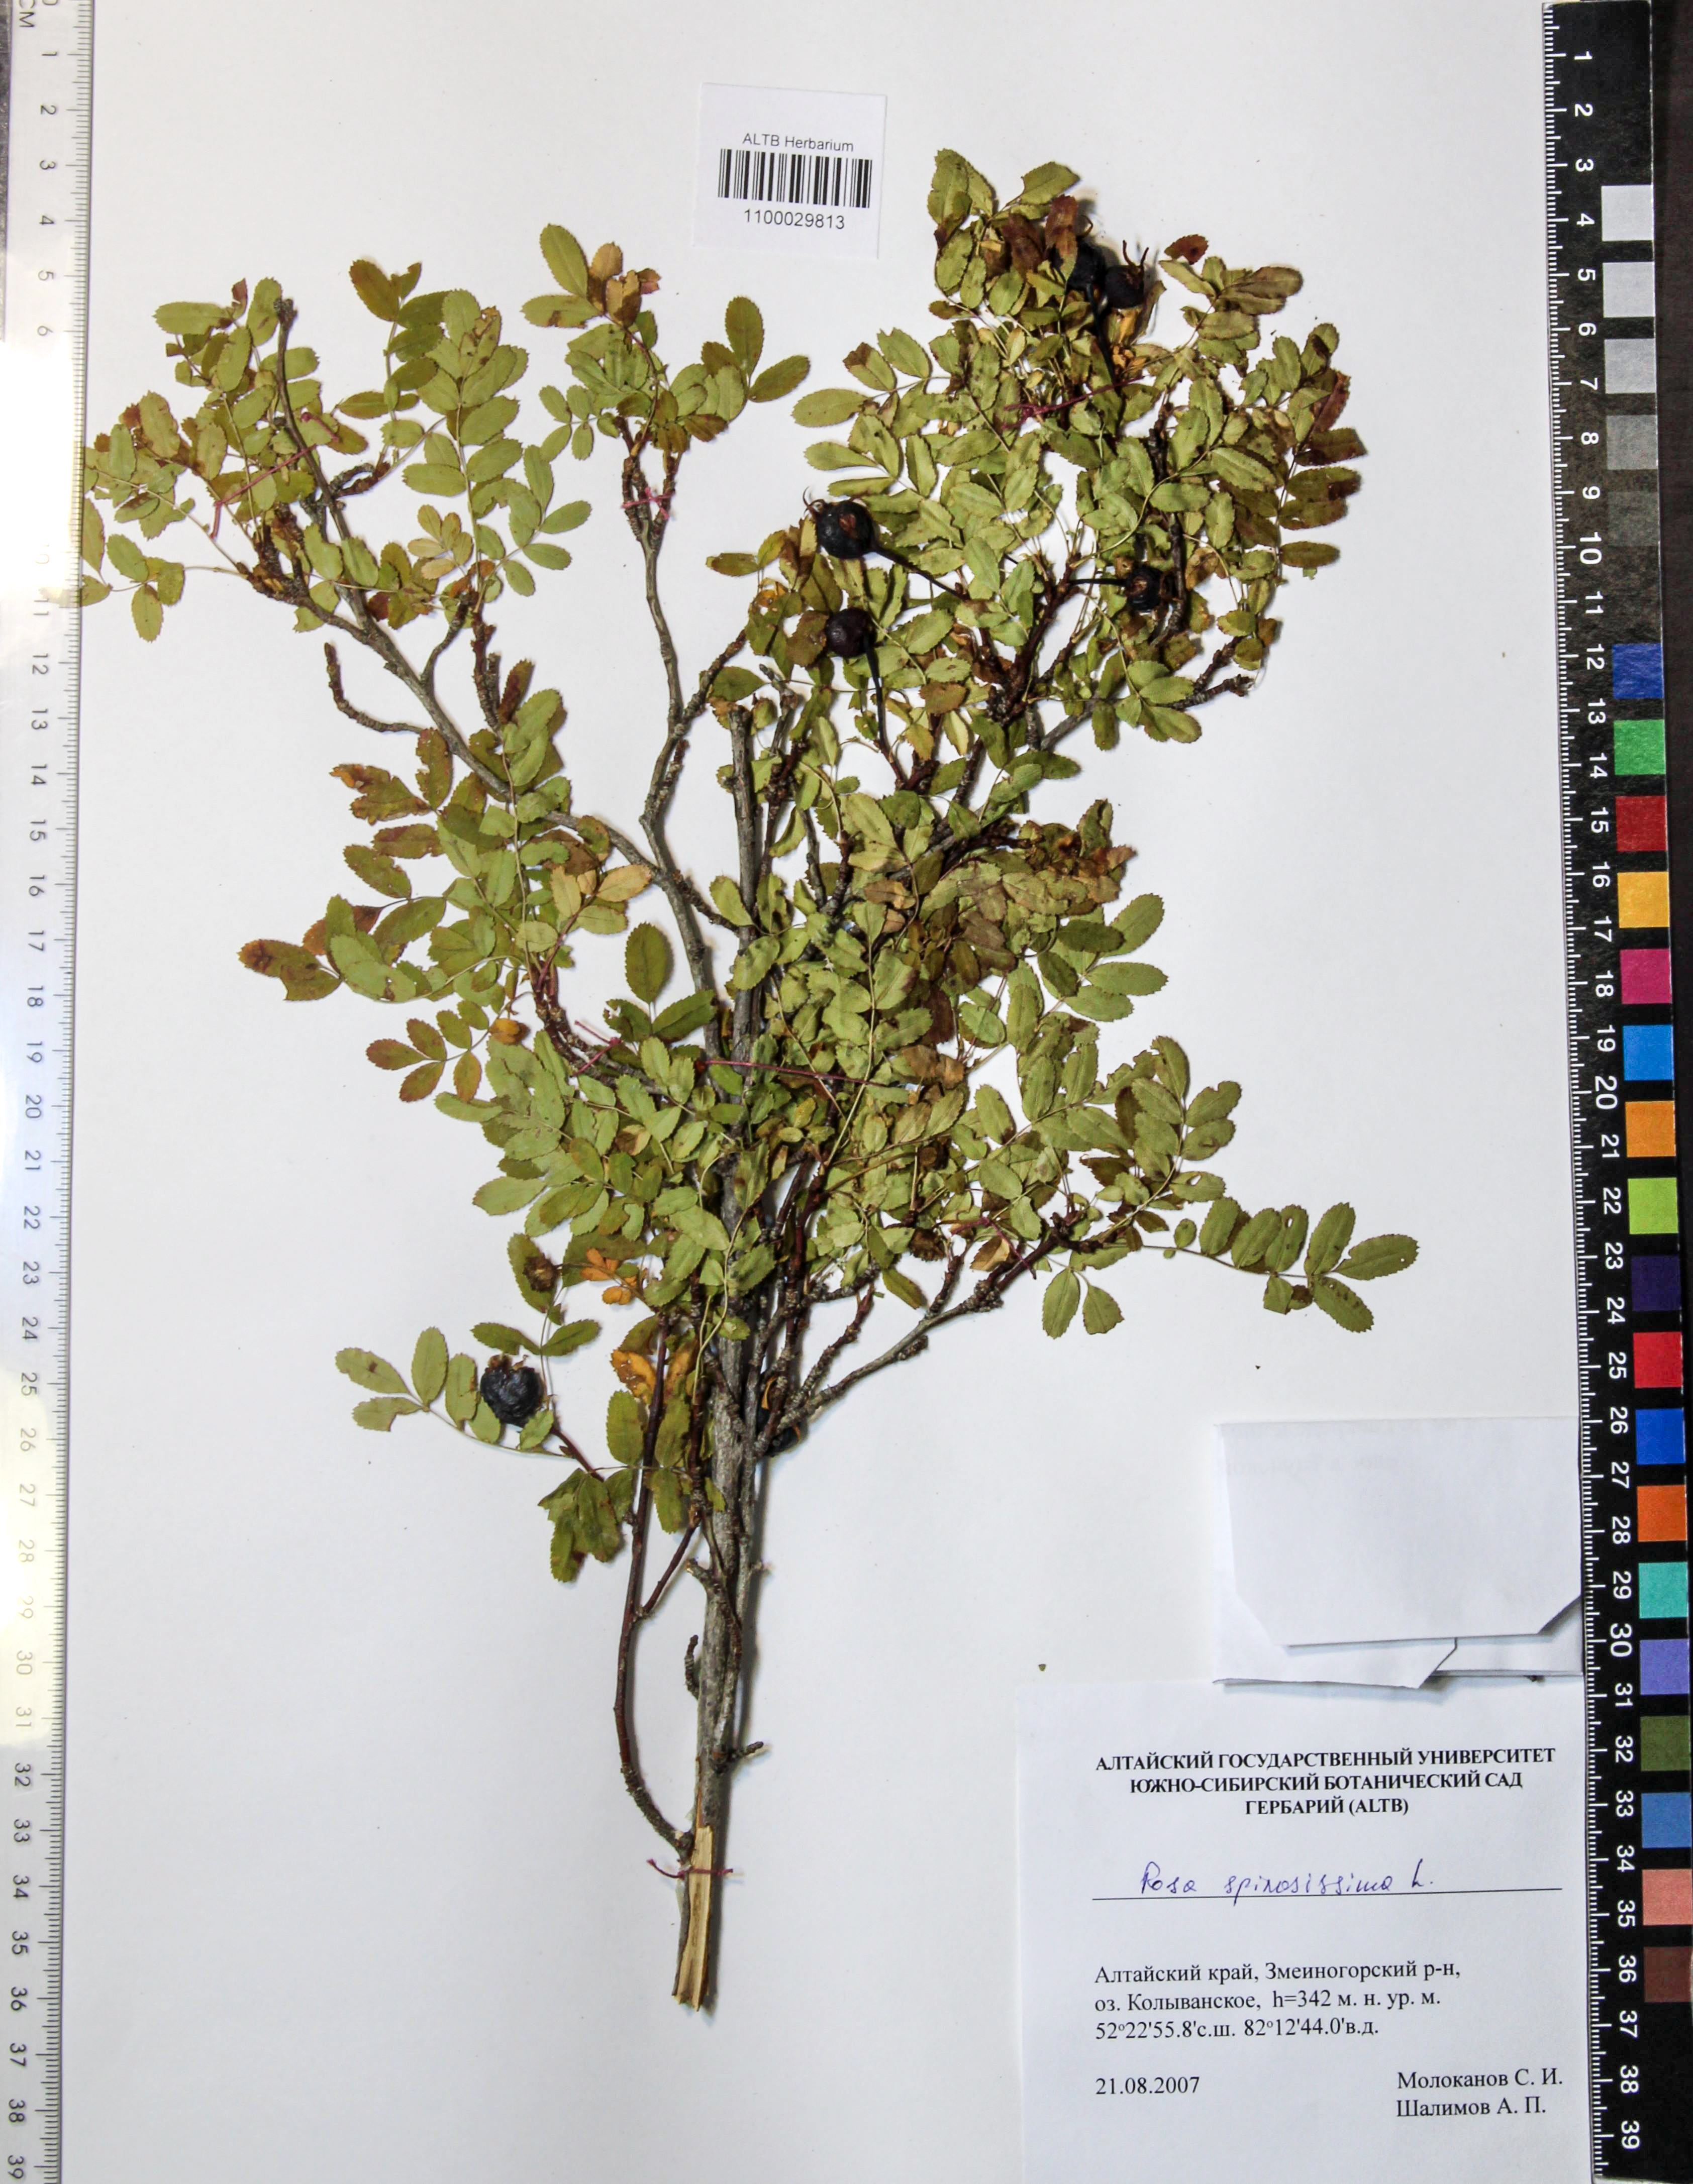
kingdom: Plantae
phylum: Tracheophyta
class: Magnoliopsida
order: Rosales
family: Rosaceae
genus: Rosa
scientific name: Rosa spinosissima
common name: Burnet rose
